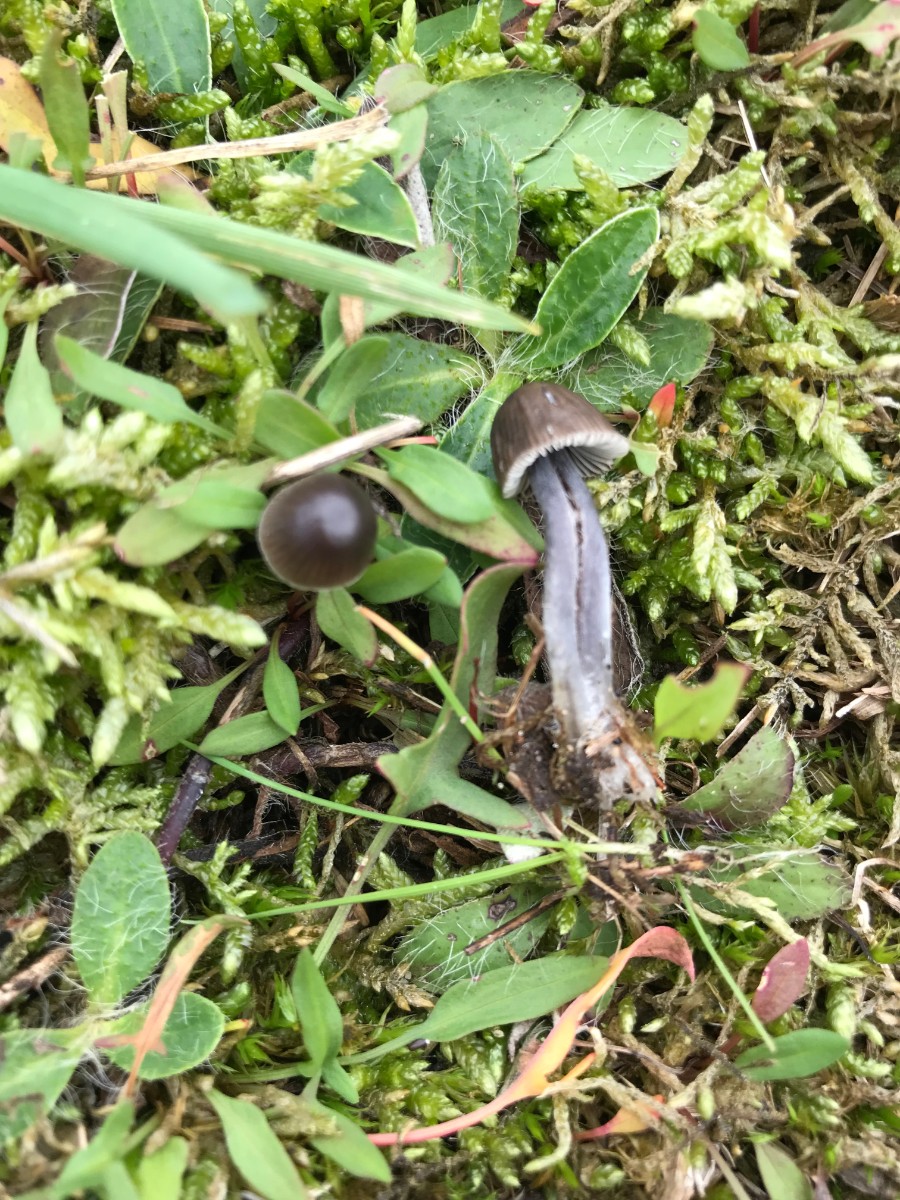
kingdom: Fungi
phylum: Basidiomycota
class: Agaricomycetes
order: Agaricales
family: Mycenaceae
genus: Mycena
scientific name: Mycena leptocephala
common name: klor-huesvamp
